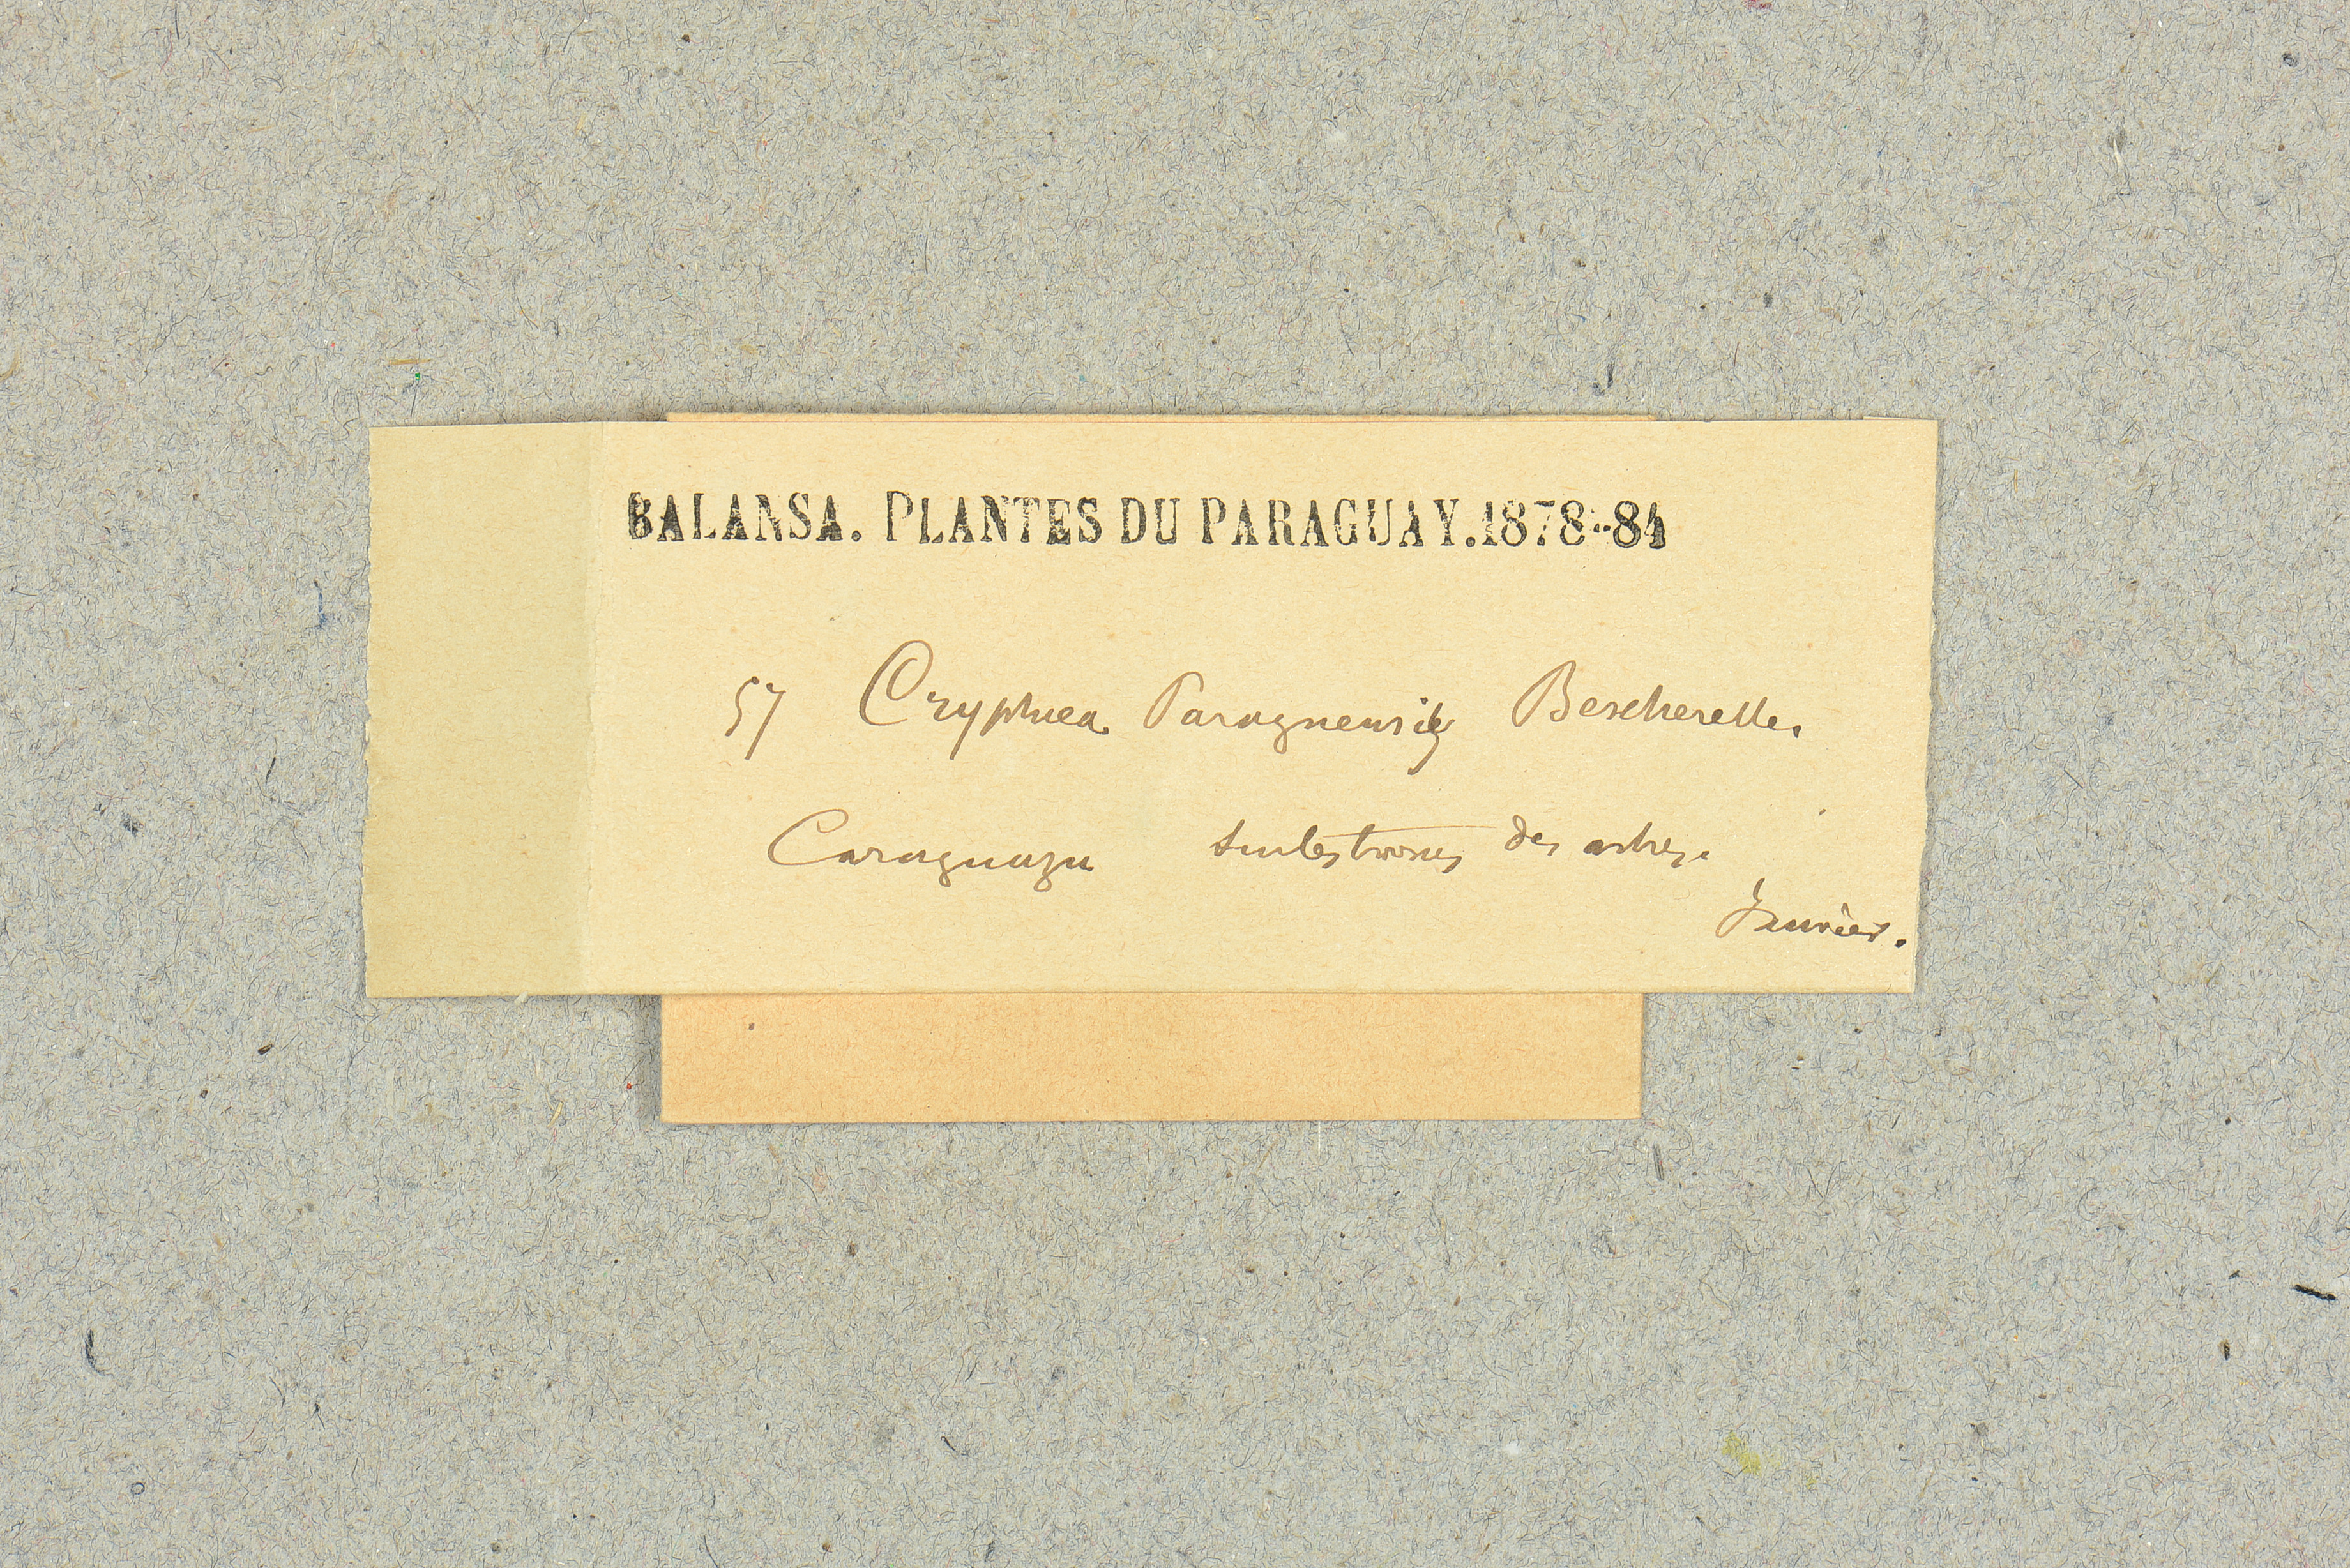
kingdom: Plantae
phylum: Bryophyta
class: Bryopsida
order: Hypnales
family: Cryphaeaceae
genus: Schoenobryum
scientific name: Schoenobryum paraguense
